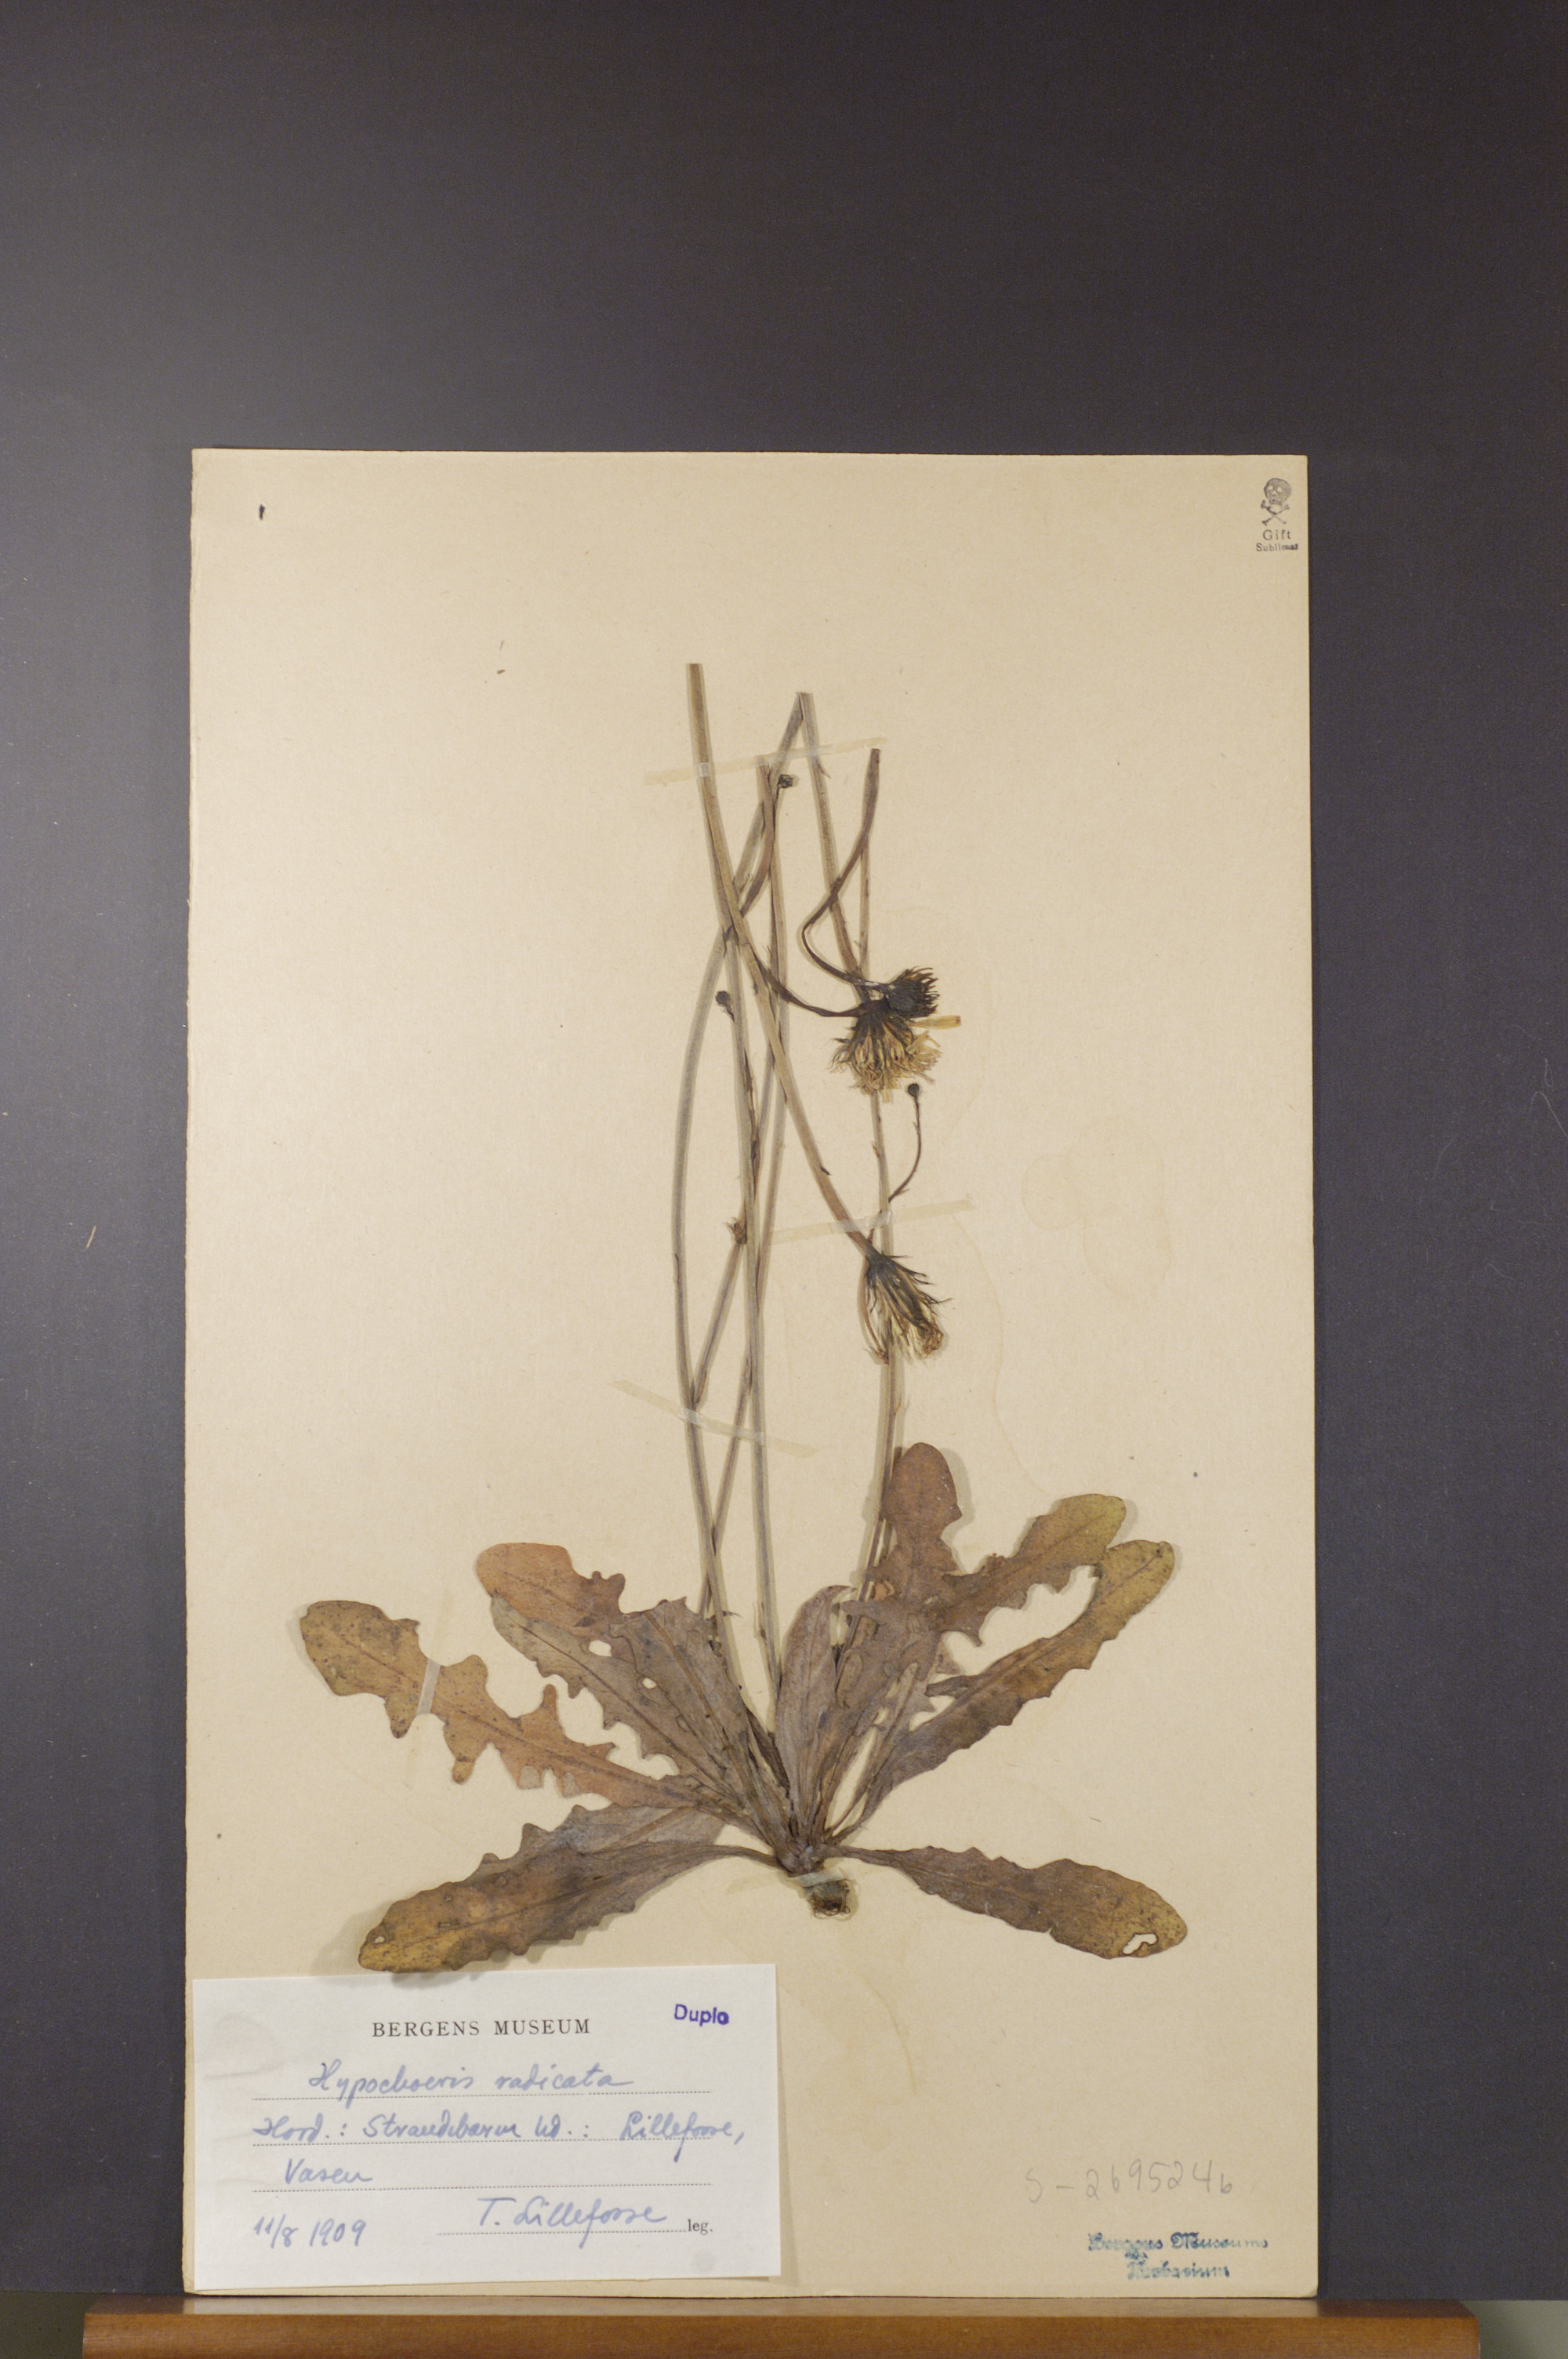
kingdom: Plantae
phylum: Tracheophyta
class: Magnoliopsida
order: Asterales
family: Asteraceae
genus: Hypochaeris
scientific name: Hypochaeris radicata
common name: Flatweed
